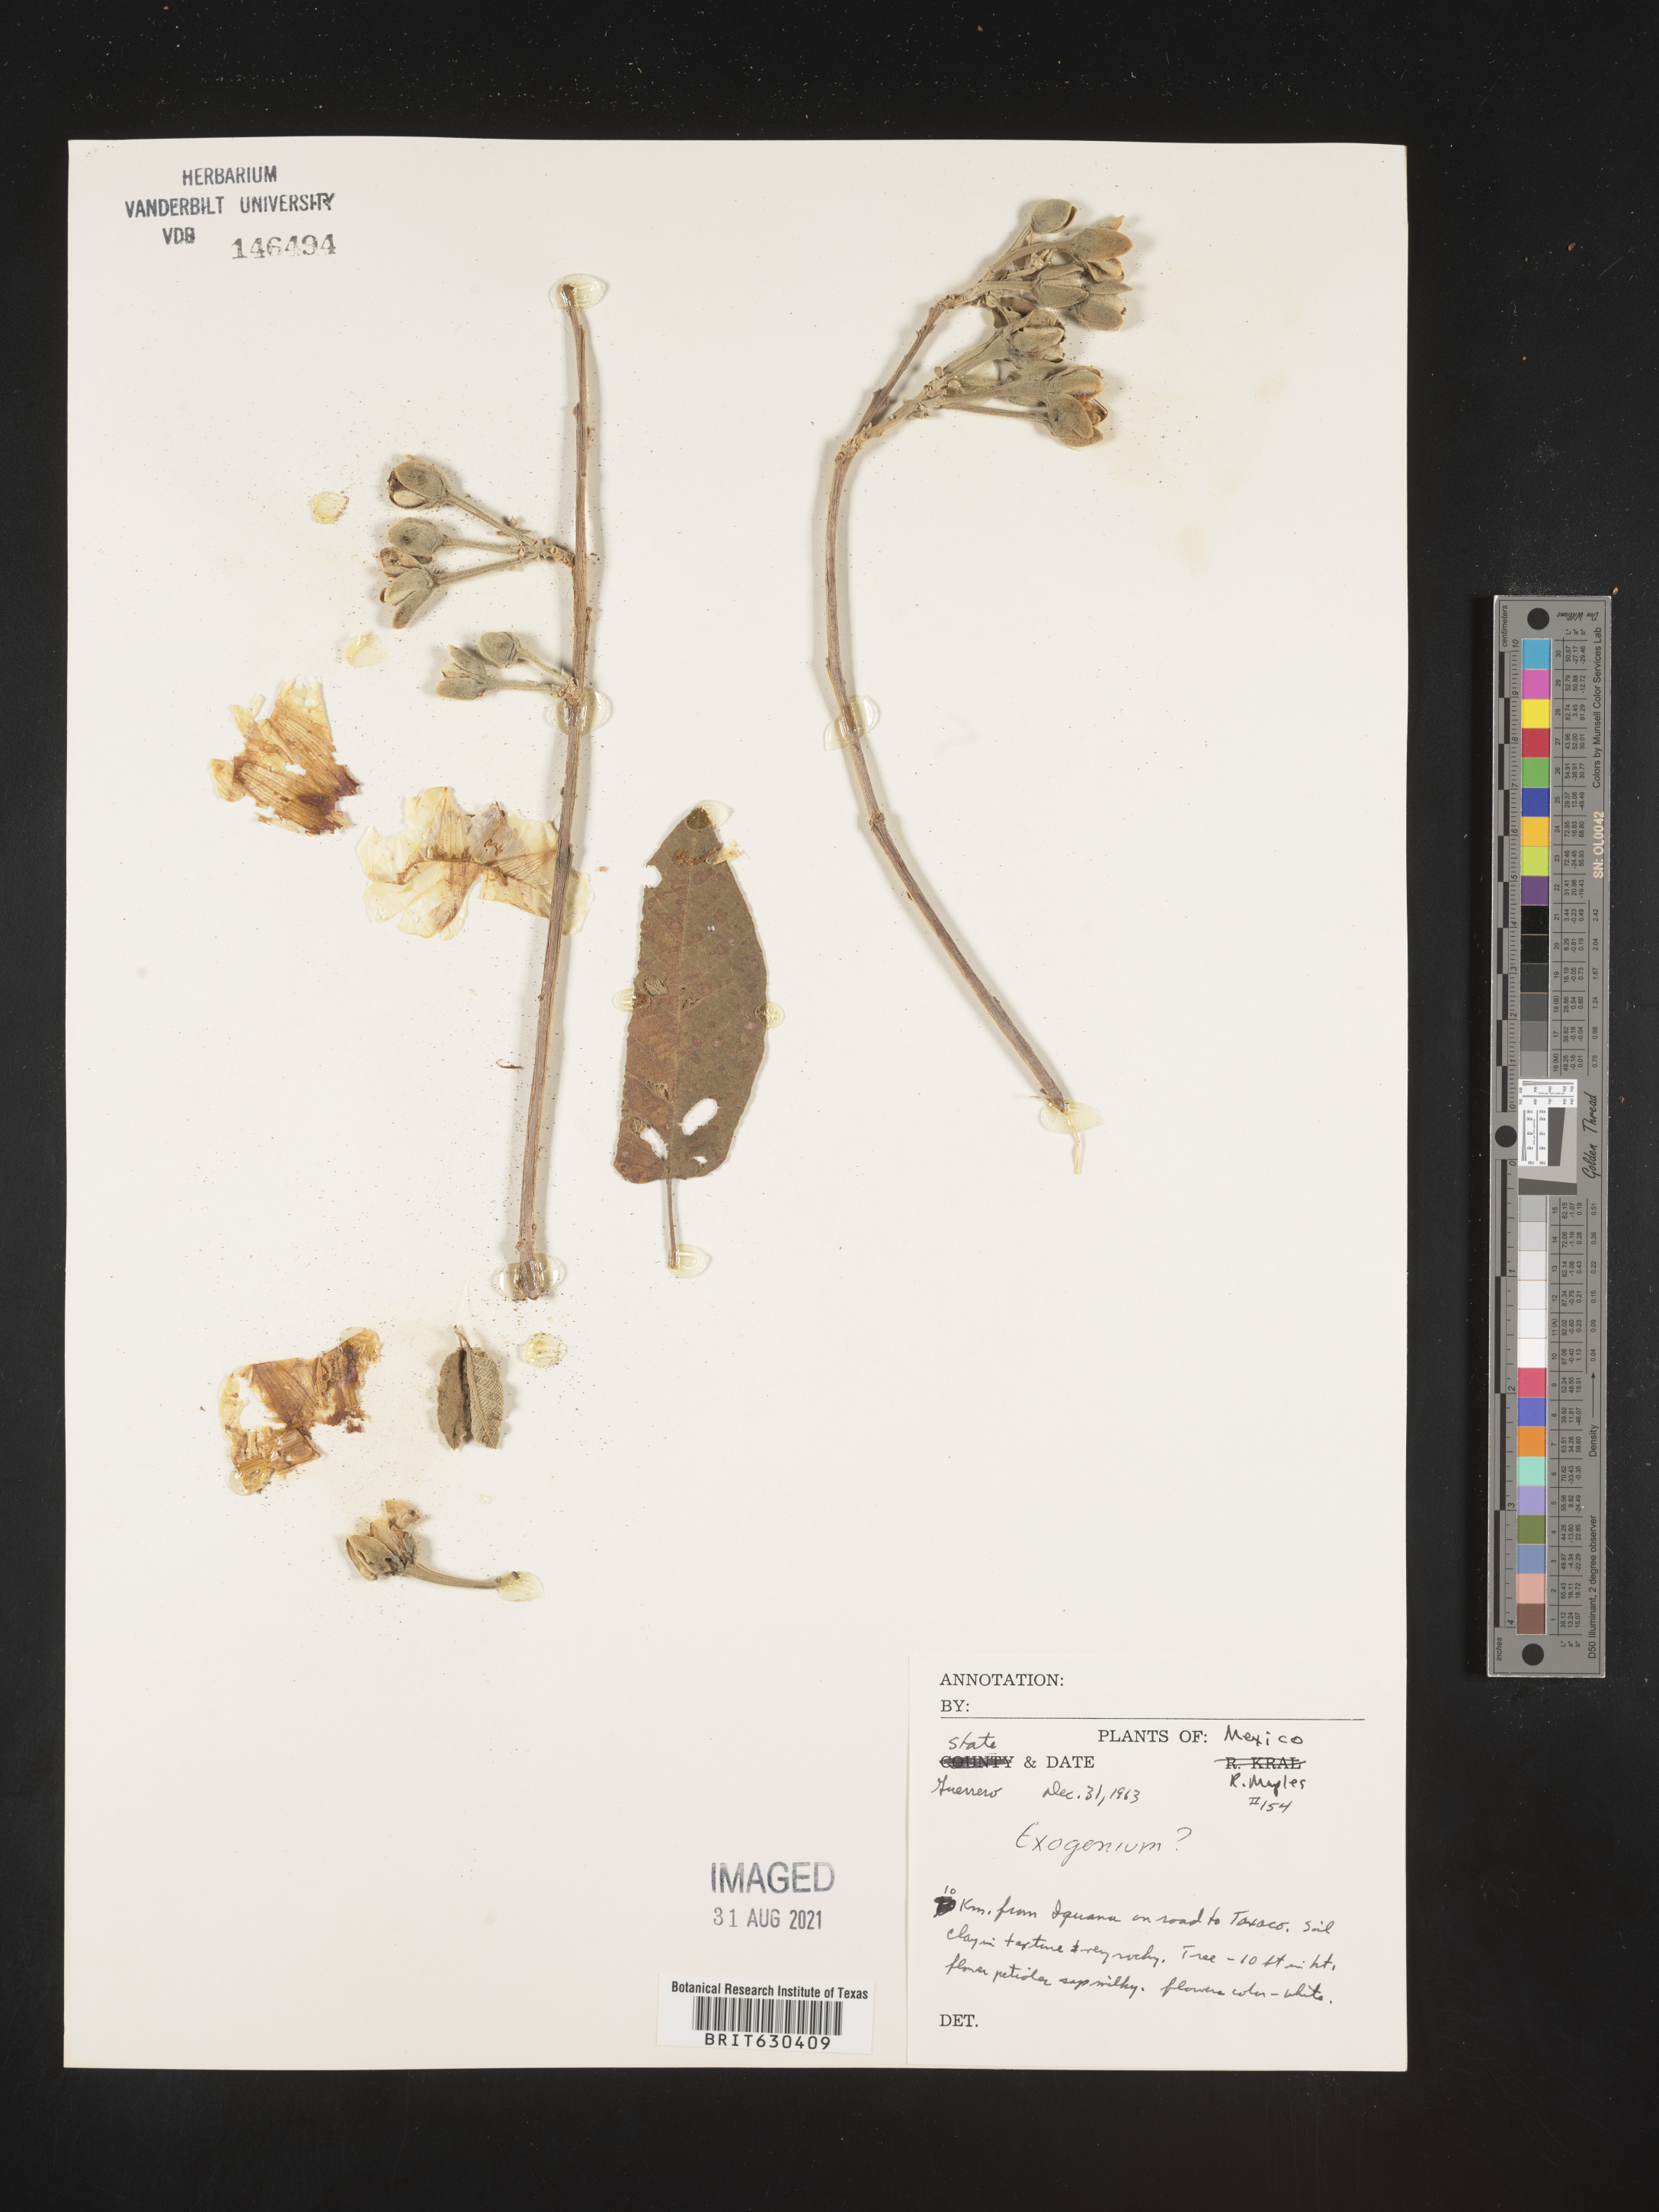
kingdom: Plantae
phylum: Tracheophyta
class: Magnoliopsida
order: Solanales
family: Convolvulaceae
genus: Ipomoea
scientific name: Ipomoea
